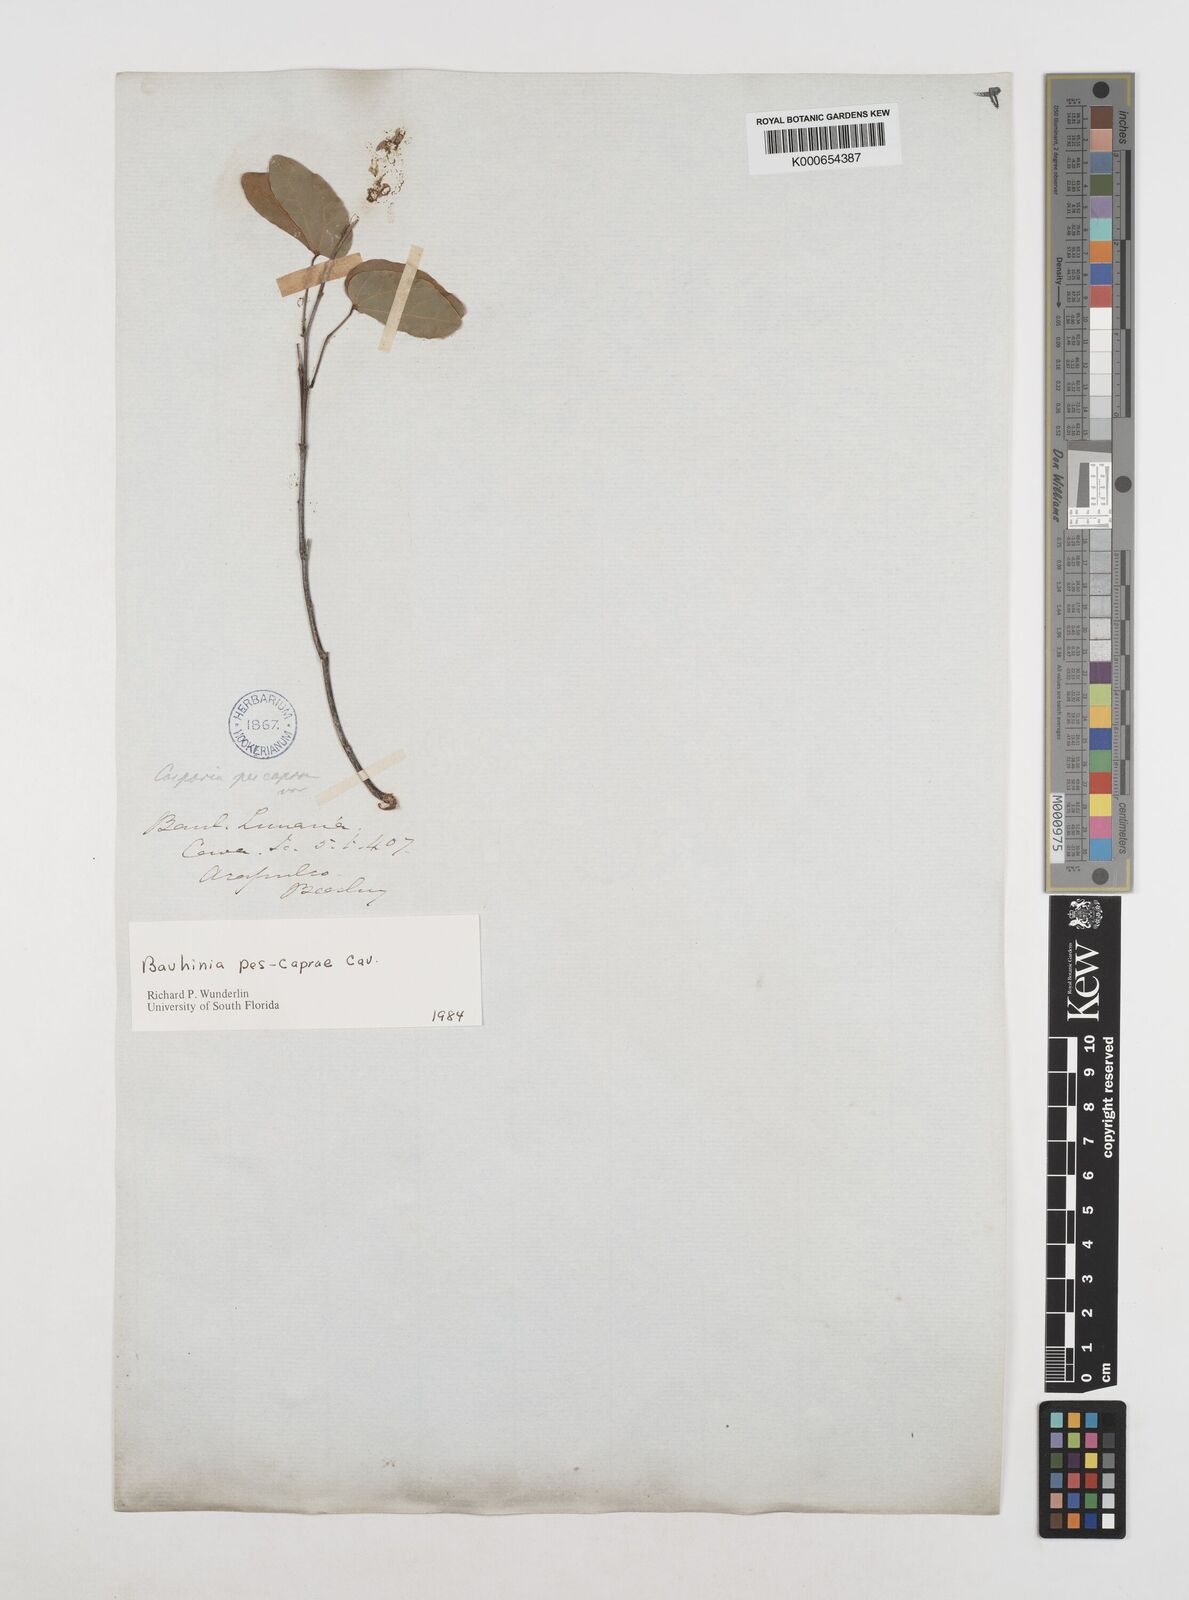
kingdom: Plantae
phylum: Tracheophyta
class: Magnoliopsida
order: Fabales
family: Fabaceae
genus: Bauhinia
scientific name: Bauhinia pes-caprae
